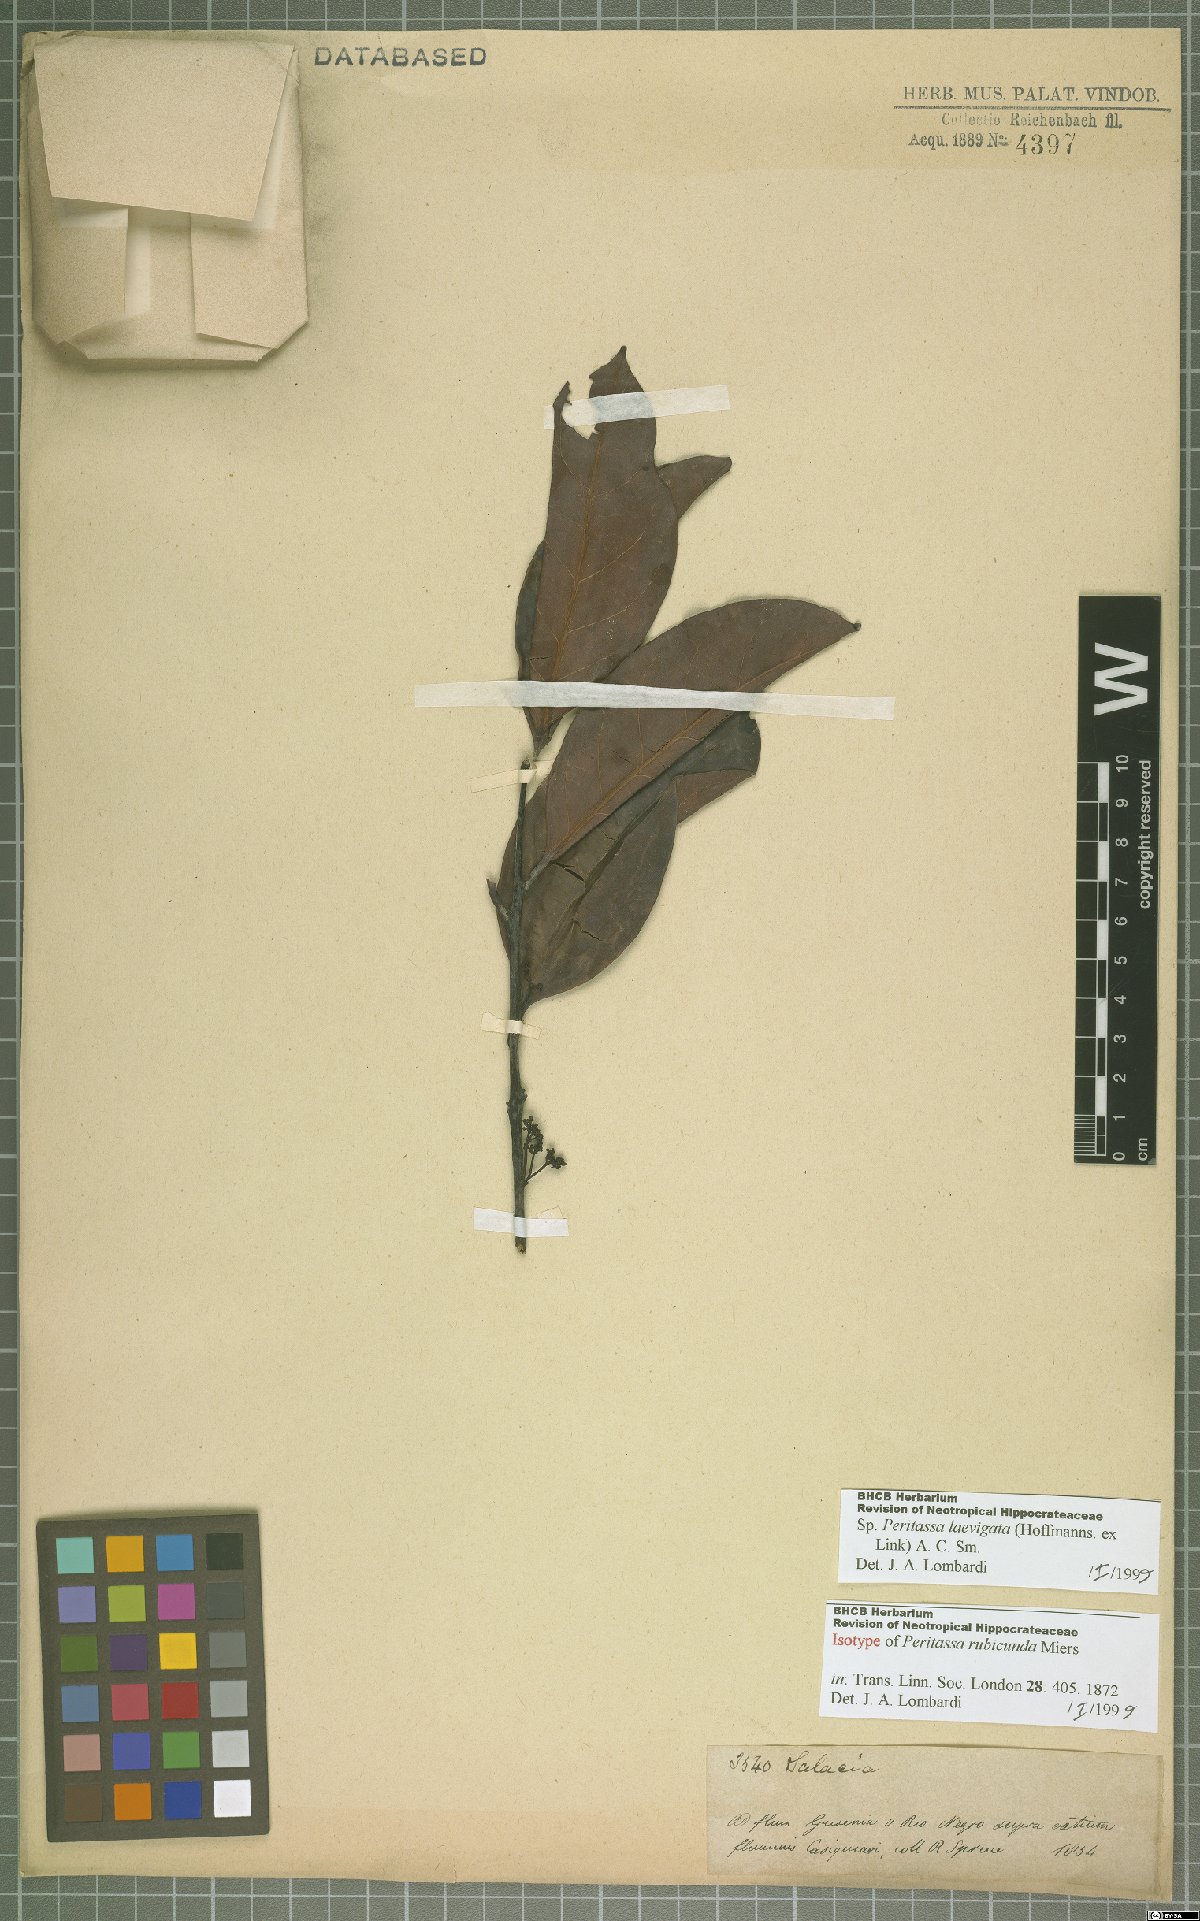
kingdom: Plantae
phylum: Tracheophyta
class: Magnoliopsida
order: Celastrales
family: Celastraceae
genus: Peritassa
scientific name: Peritassa laevigata
